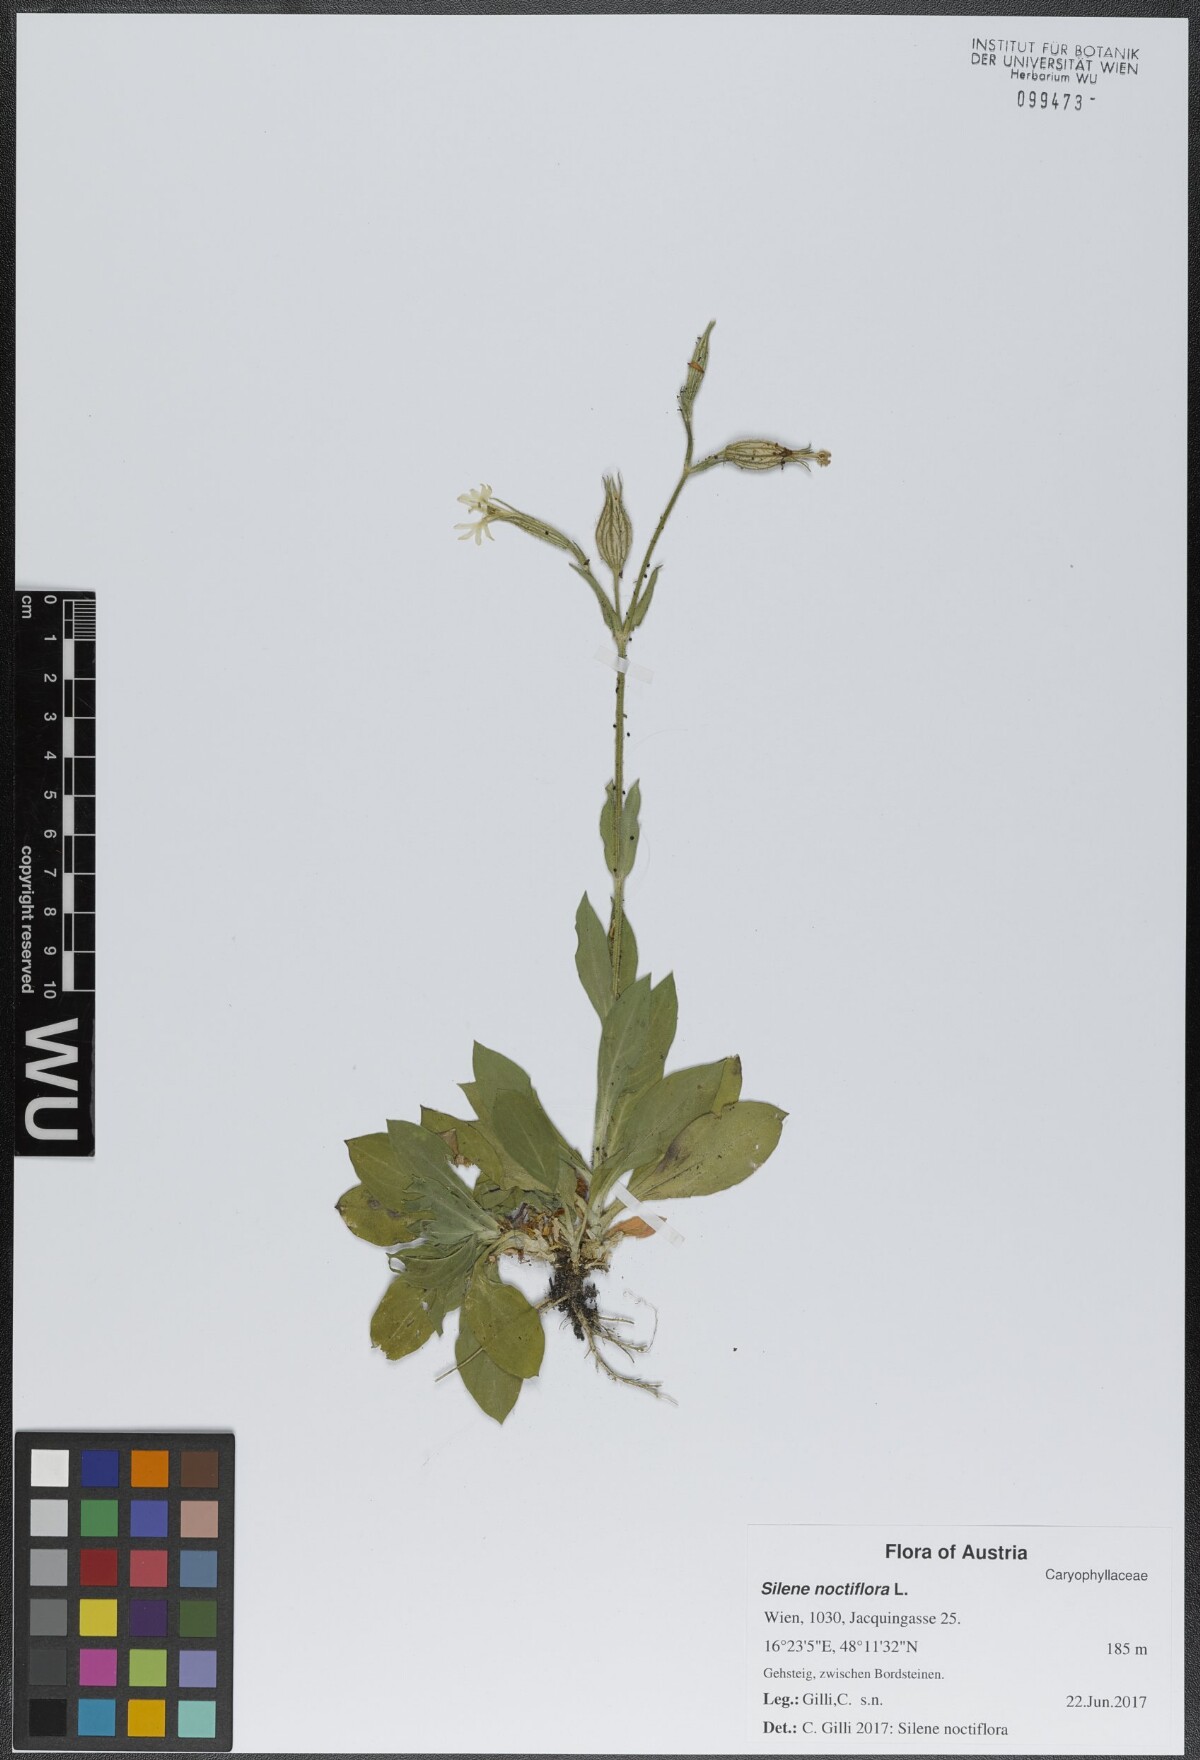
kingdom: Plantae
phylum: Tracheophyta
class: Magnoliopsida
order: Caryophyllales
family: Caryophyllaceae
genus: Silene
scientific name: Silene noctiflora
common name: Night-flowering catchfly
